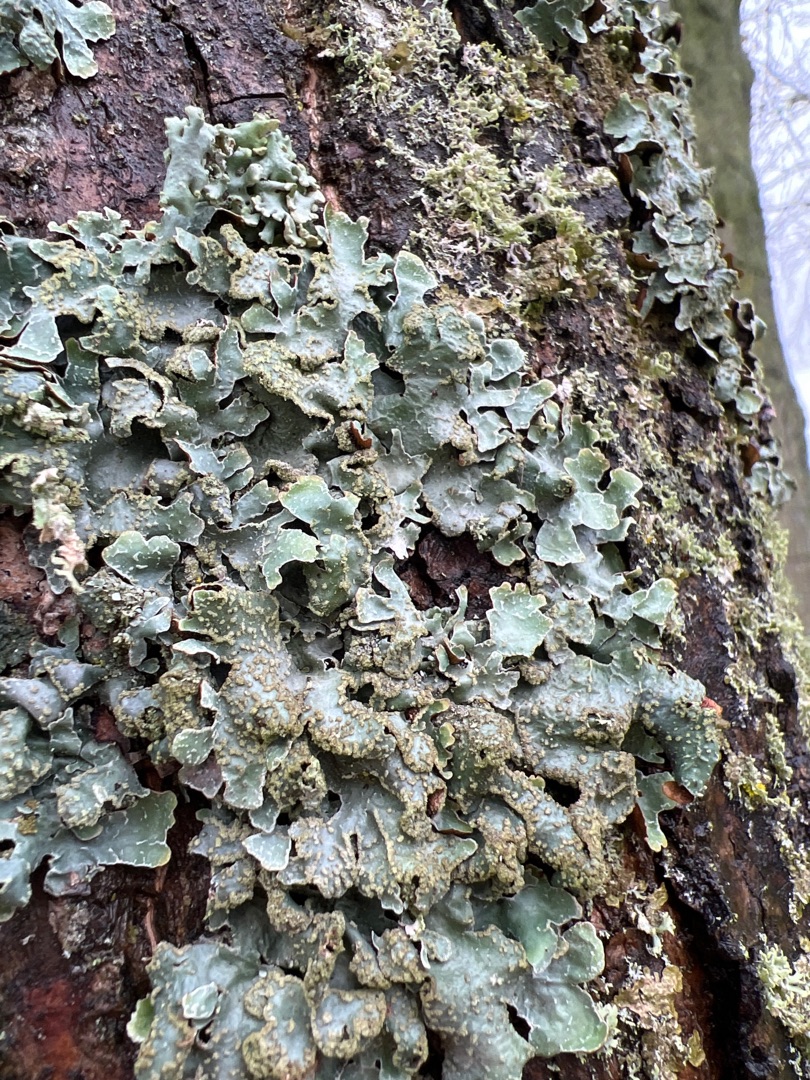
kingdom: Fungi
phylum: Ascomycota
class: Lecanoromycetes
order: Lecanorales
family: Parmeliaceae
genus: Parmelia
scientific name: Parmelia sulcata
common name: Rynket skållav
